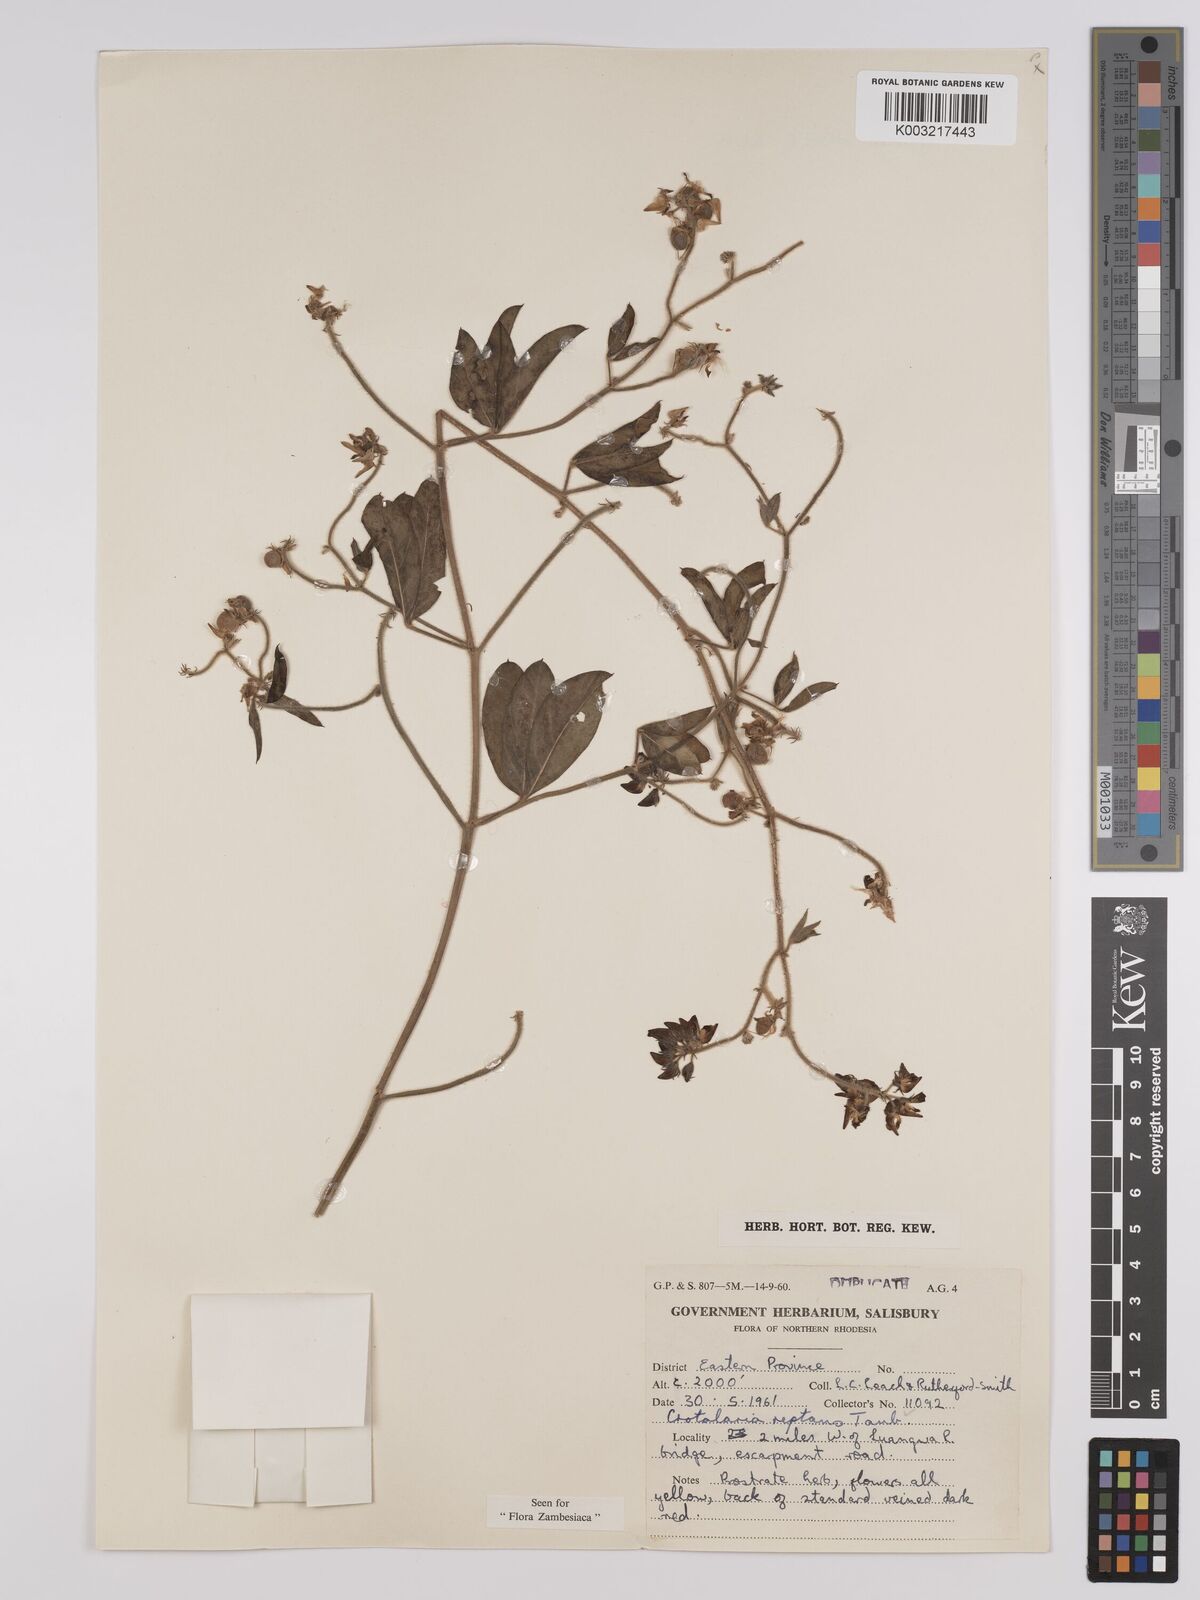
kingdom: Plantae
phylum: Tracheophyta
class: Magnoliopsida
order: Fabales
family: Fabaceae
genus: Crotalaria
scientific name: Crotalaria reptans
